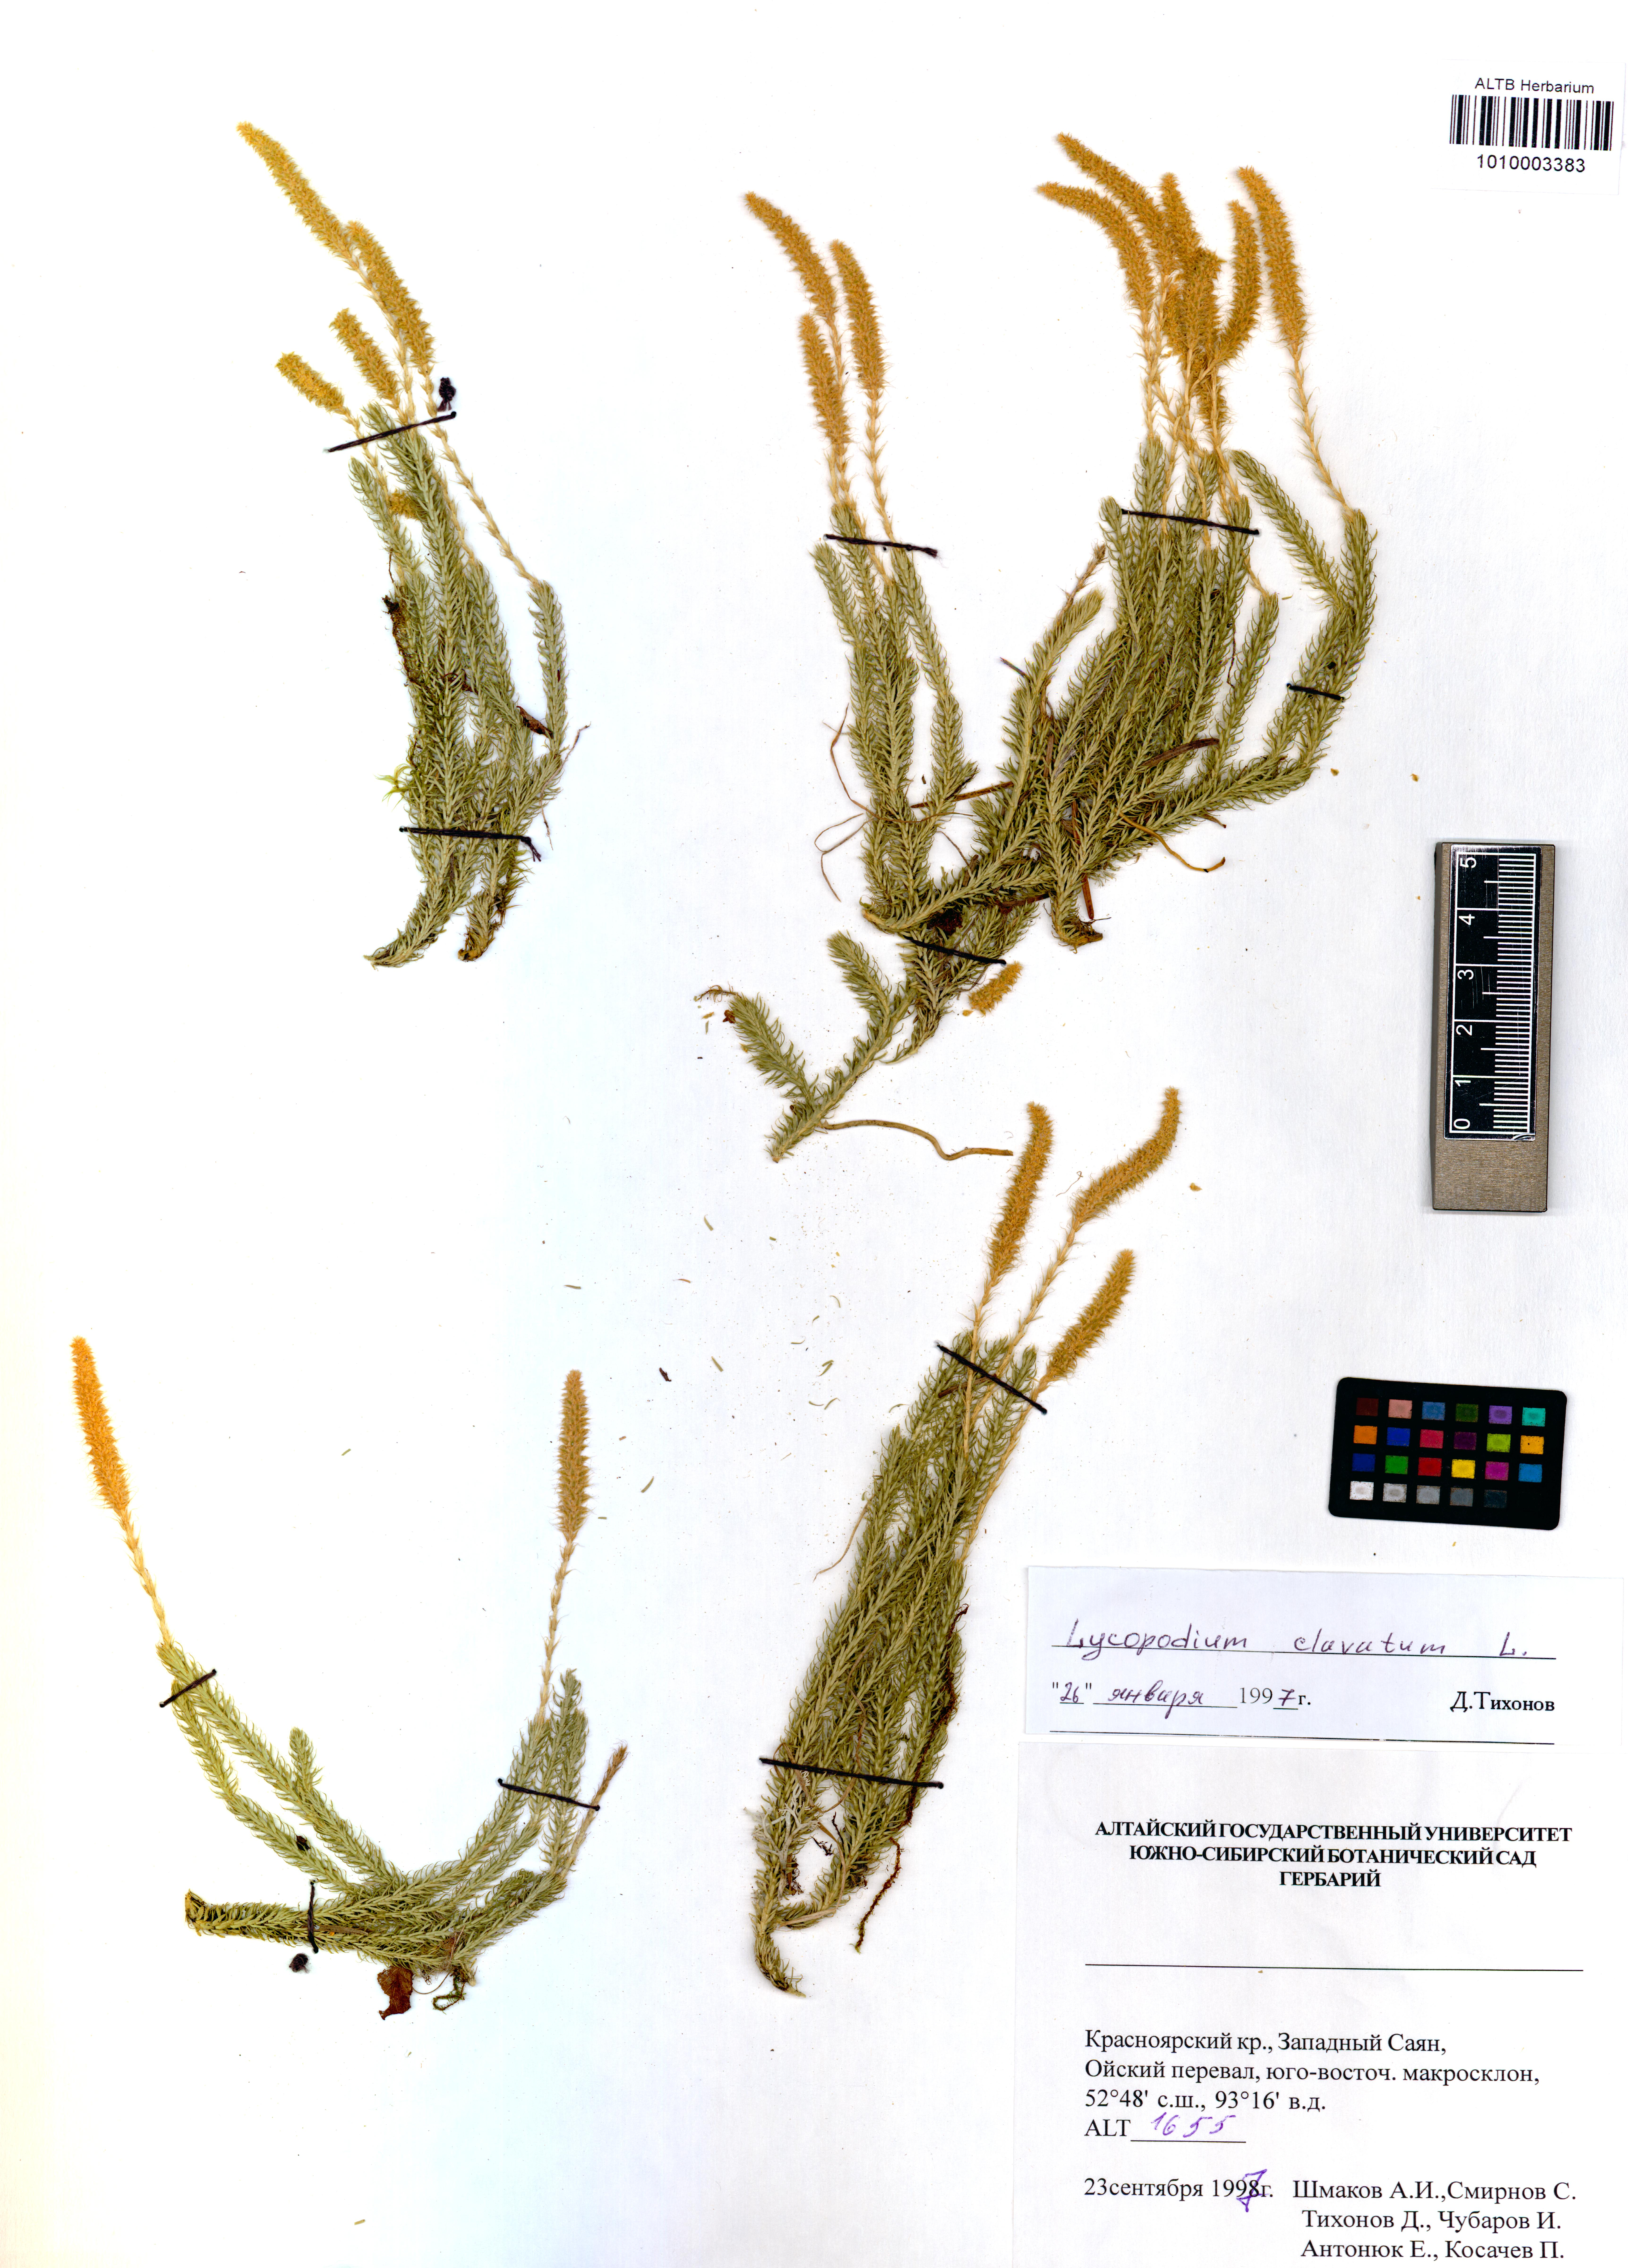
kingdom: Plantae
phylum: Tracheophyta
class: Lycopodiopsida
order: Lycopodiales
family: Lycopodiaceae
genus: Lycopodium
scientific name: Lycopodium clavatum
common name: Stag's-horn clubmoss
